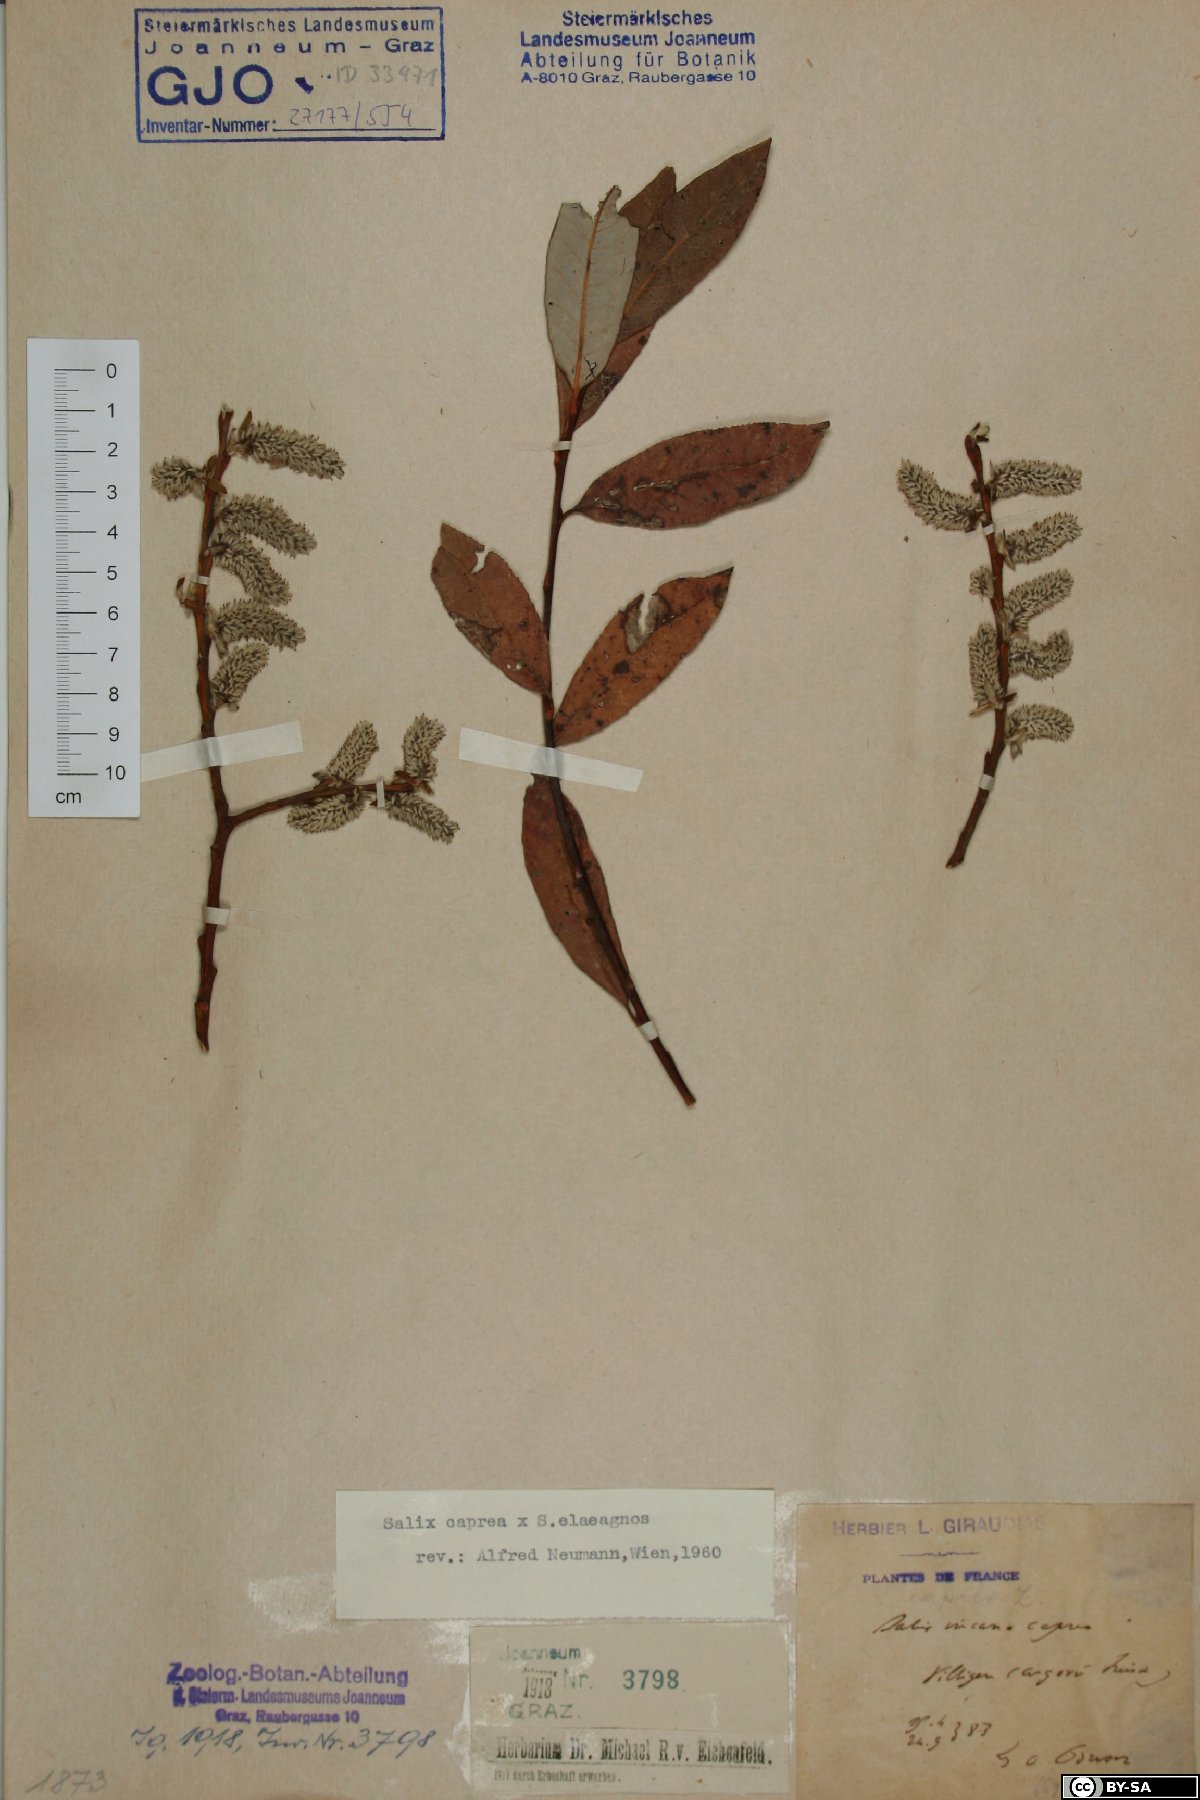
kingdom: Plantae
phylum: Tracheophyta
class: Magnoliopsida
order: Malpighiales
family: Salicaceae
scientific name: Salicaceae
